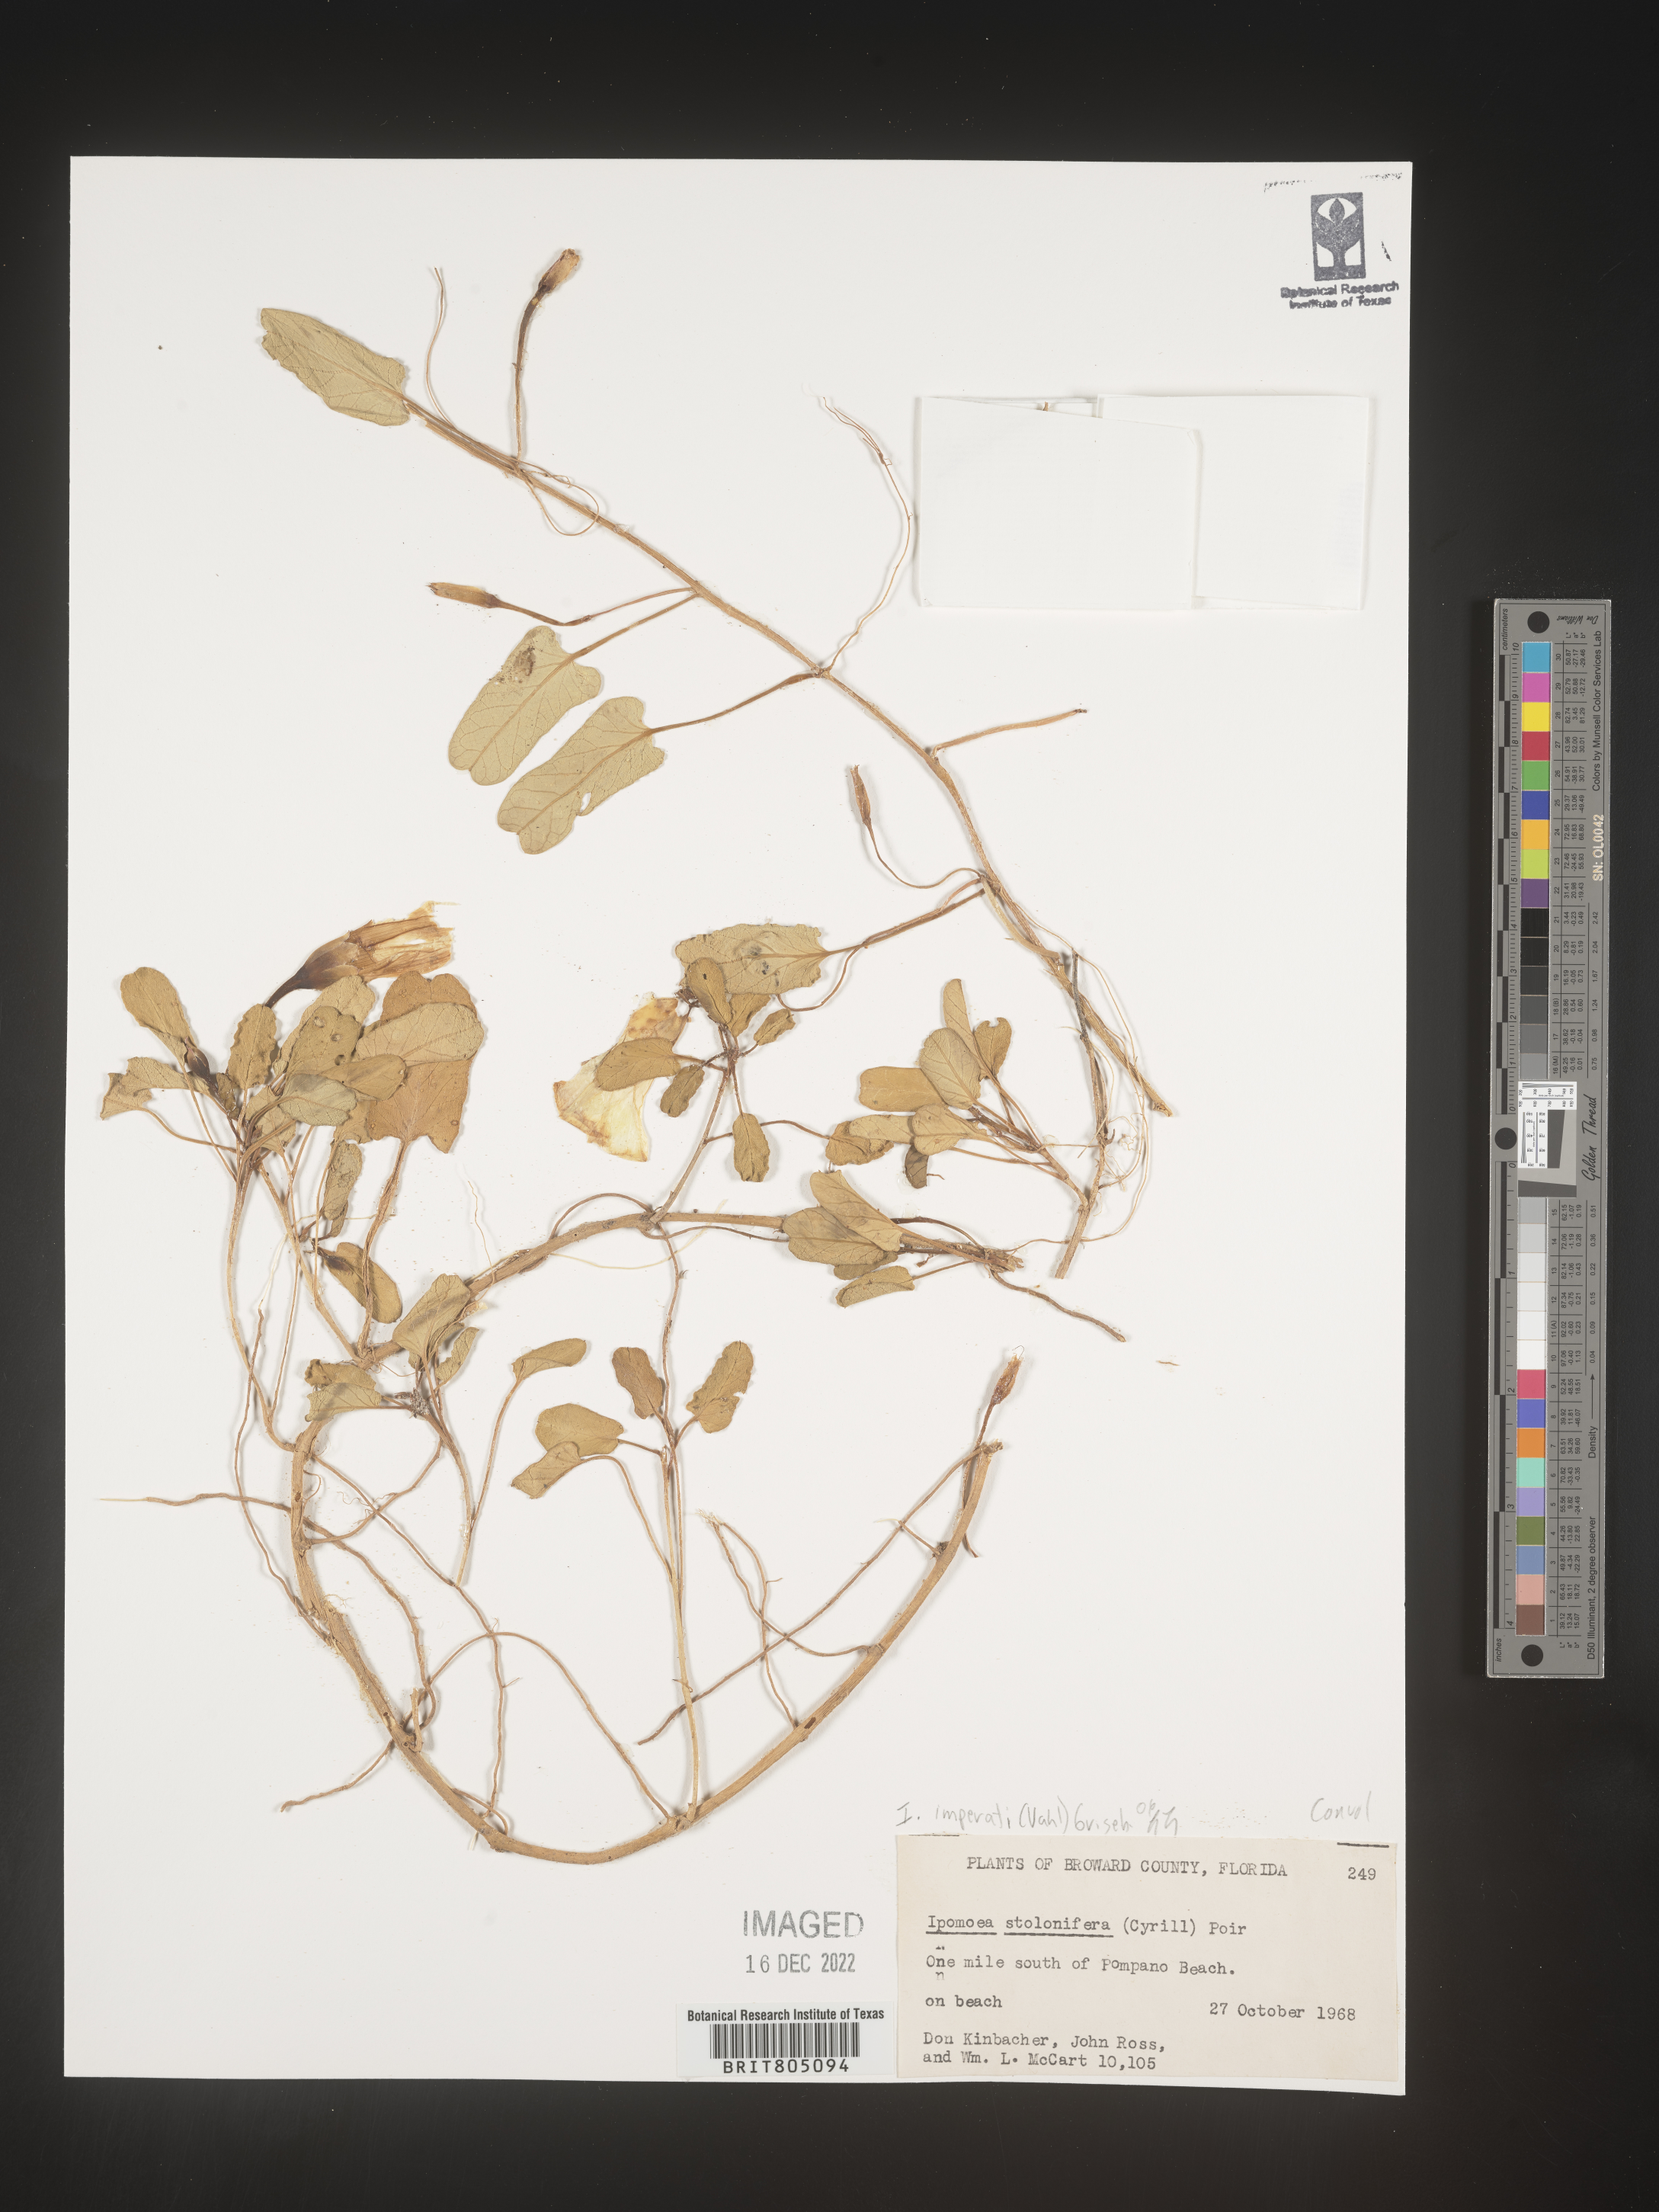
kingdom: Plantae
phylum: Tracheophyta
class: Magnoliopsida
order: Solanales
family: Convolvulaceae
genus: Ipomoea
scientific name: Ipomoea imperati
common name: Fiddle-leaf morning-glory
